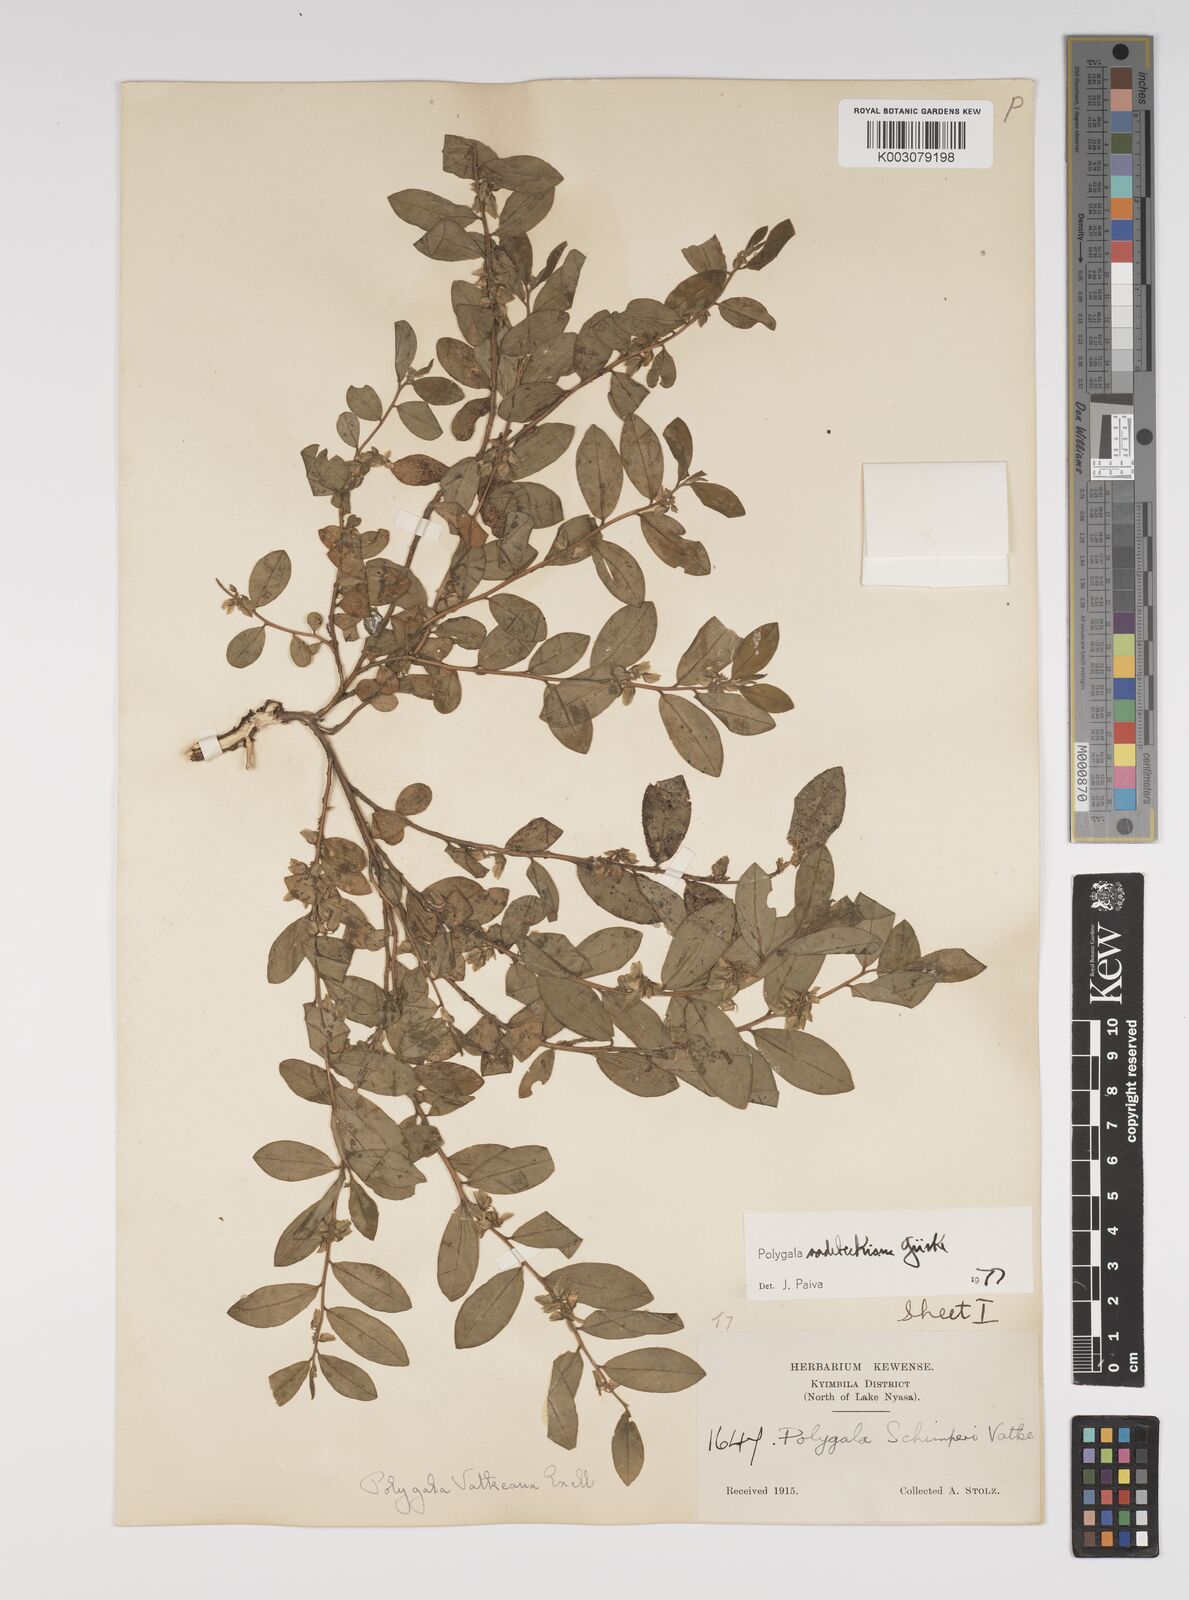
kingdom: Plantae
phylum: Tracheophyta
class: Magnoliopsida
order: Fabales
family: Polygalaceae
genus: Polygala
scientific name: Polygala sadebeckiana
